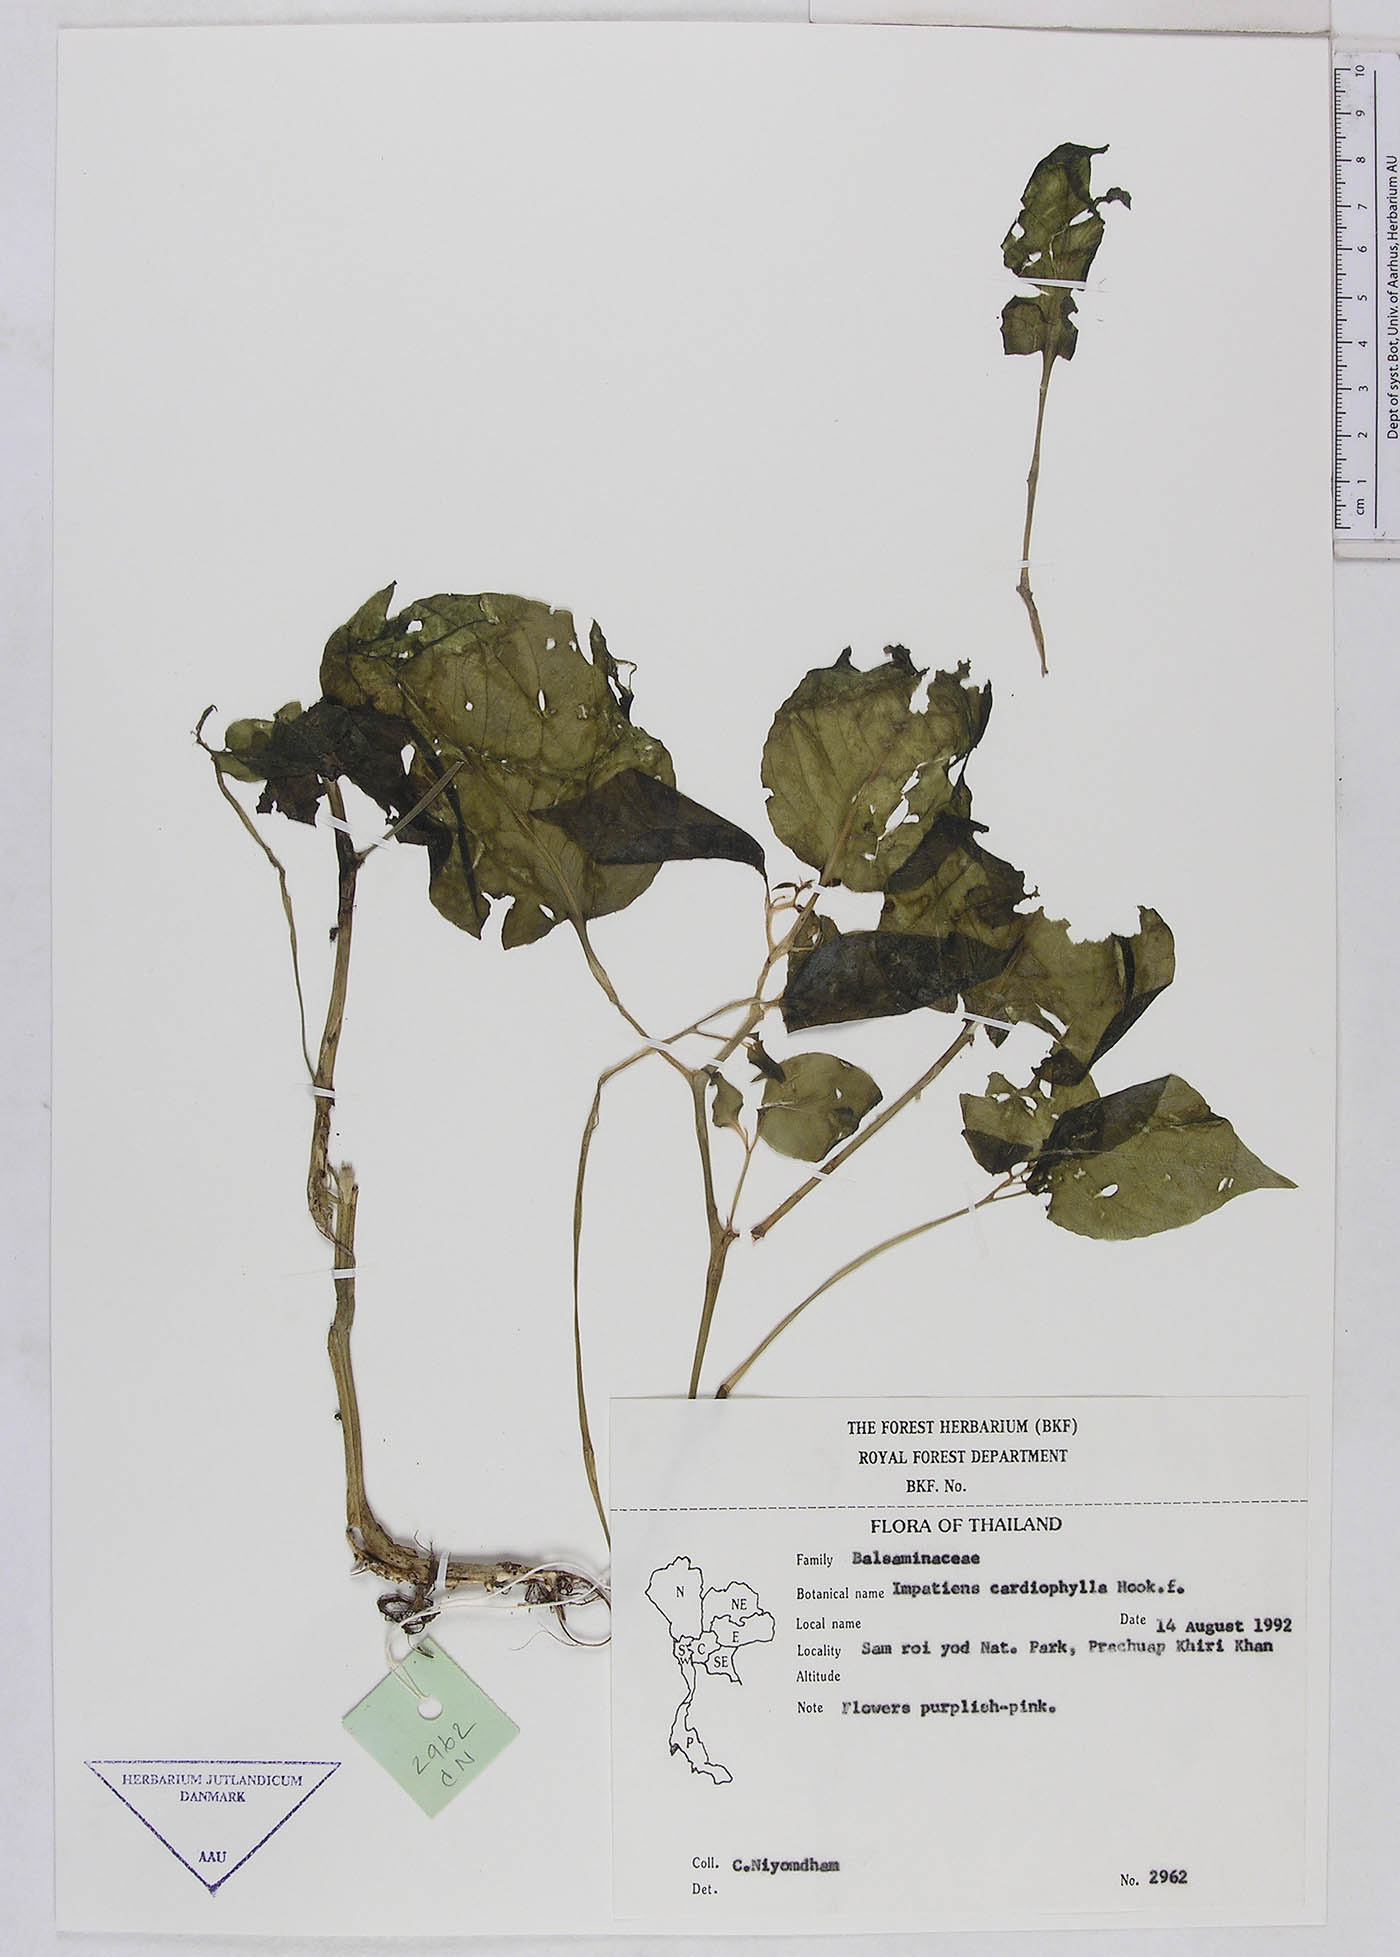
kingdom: Plantae
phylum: Tracheophyta
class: Magnoliopsida
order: Ericales
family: Balsaminaceae
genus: Impatiens
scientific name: Impatiens putii
